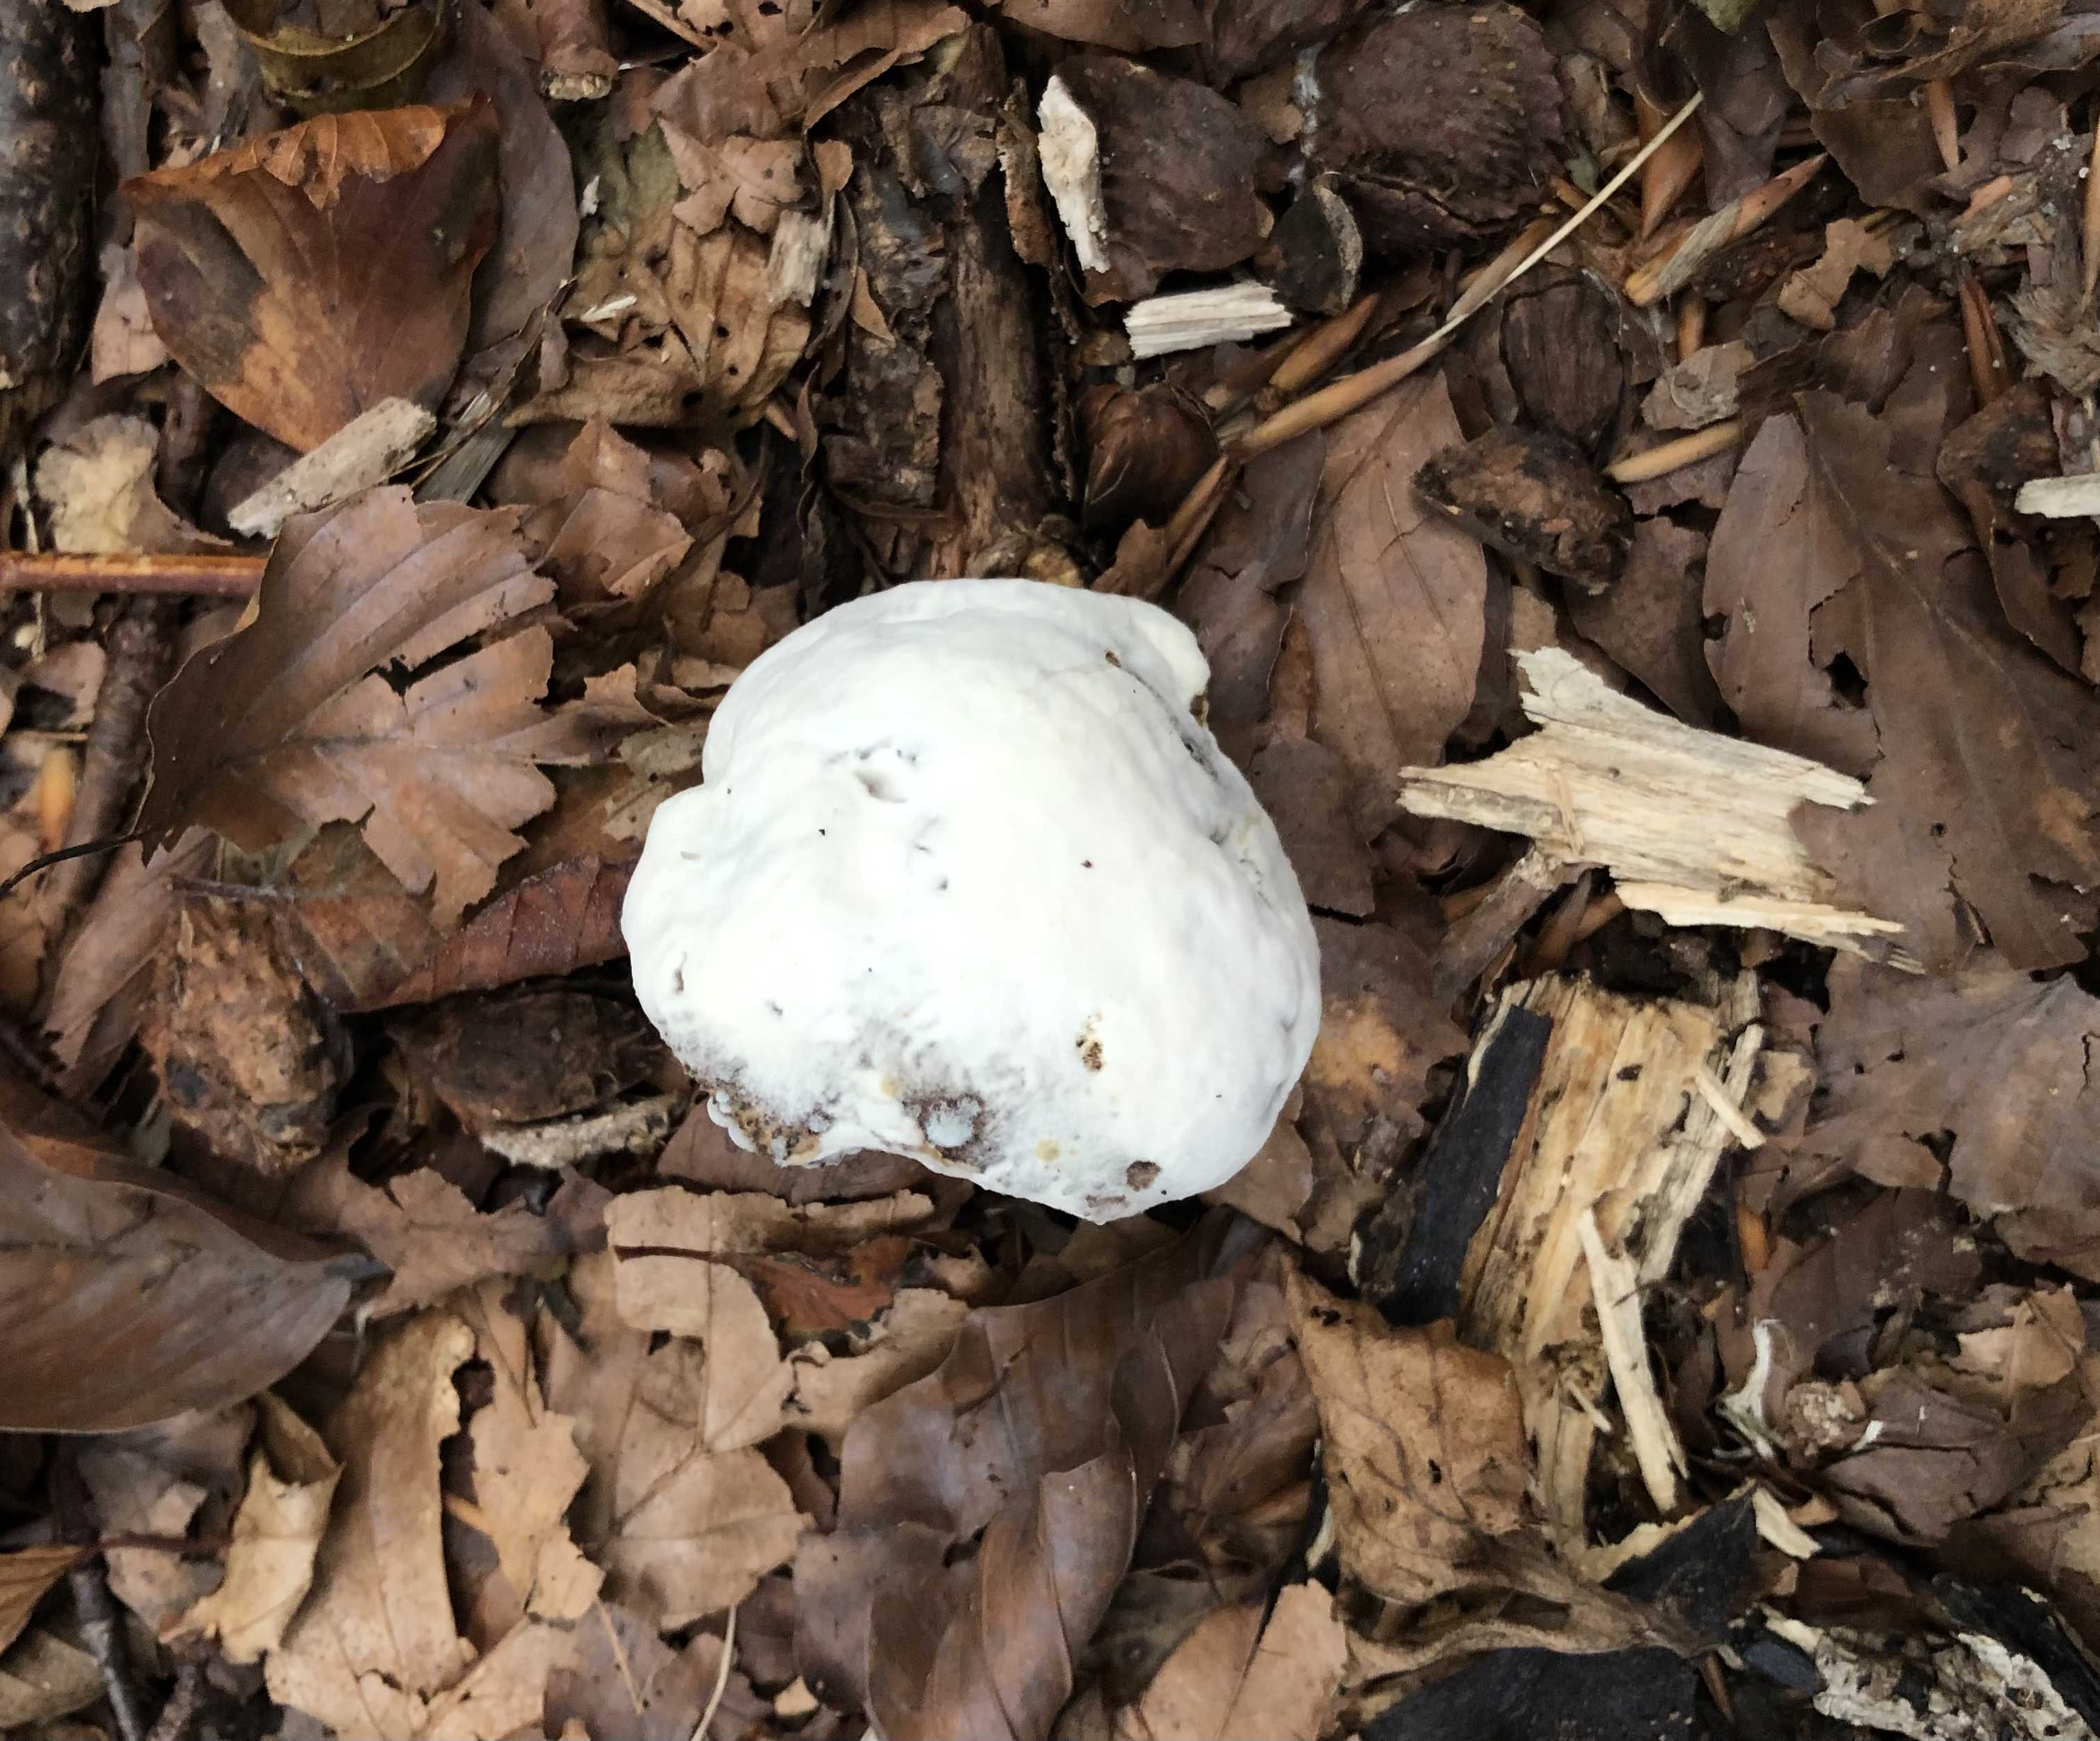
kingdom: Fungi
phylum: Ascomycota
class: Sordariomycetes
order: Hypocreales
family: Hypocreaceae
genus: Hypomyces
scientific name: Hypomyces microspermus
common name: dværgrørhat-snylteskorpe
